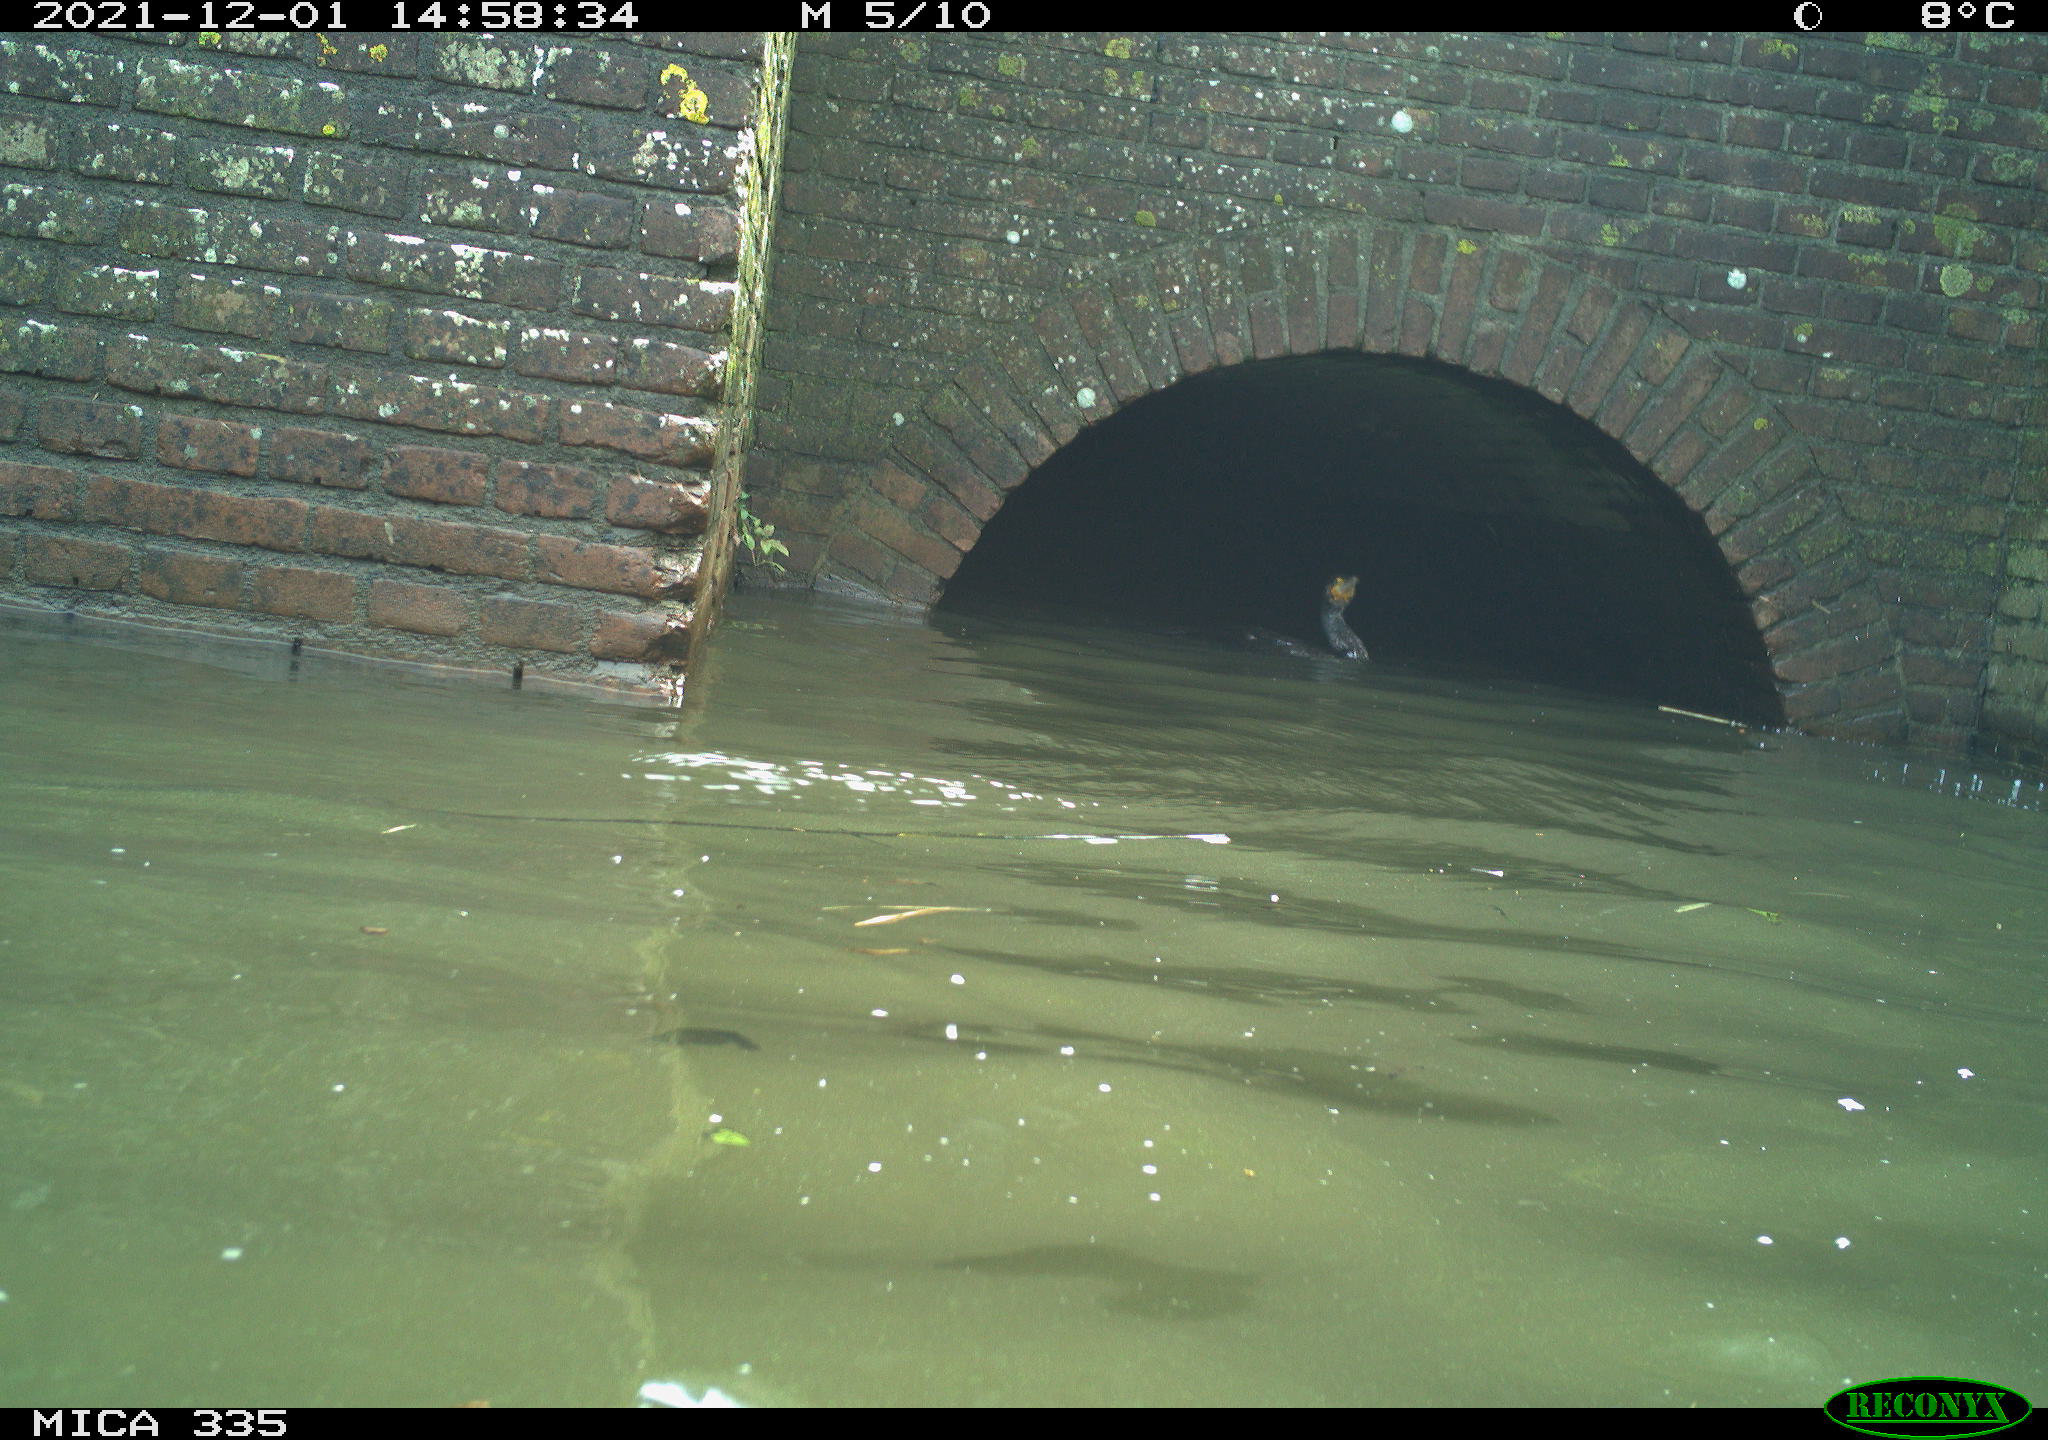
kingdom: Animalia
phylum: Chordata
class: Aves
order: Suliformes
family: Phalacrocoracidae
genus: Phalacrocorax
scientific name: Phalacrocorax carbo
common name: Great cormorant
